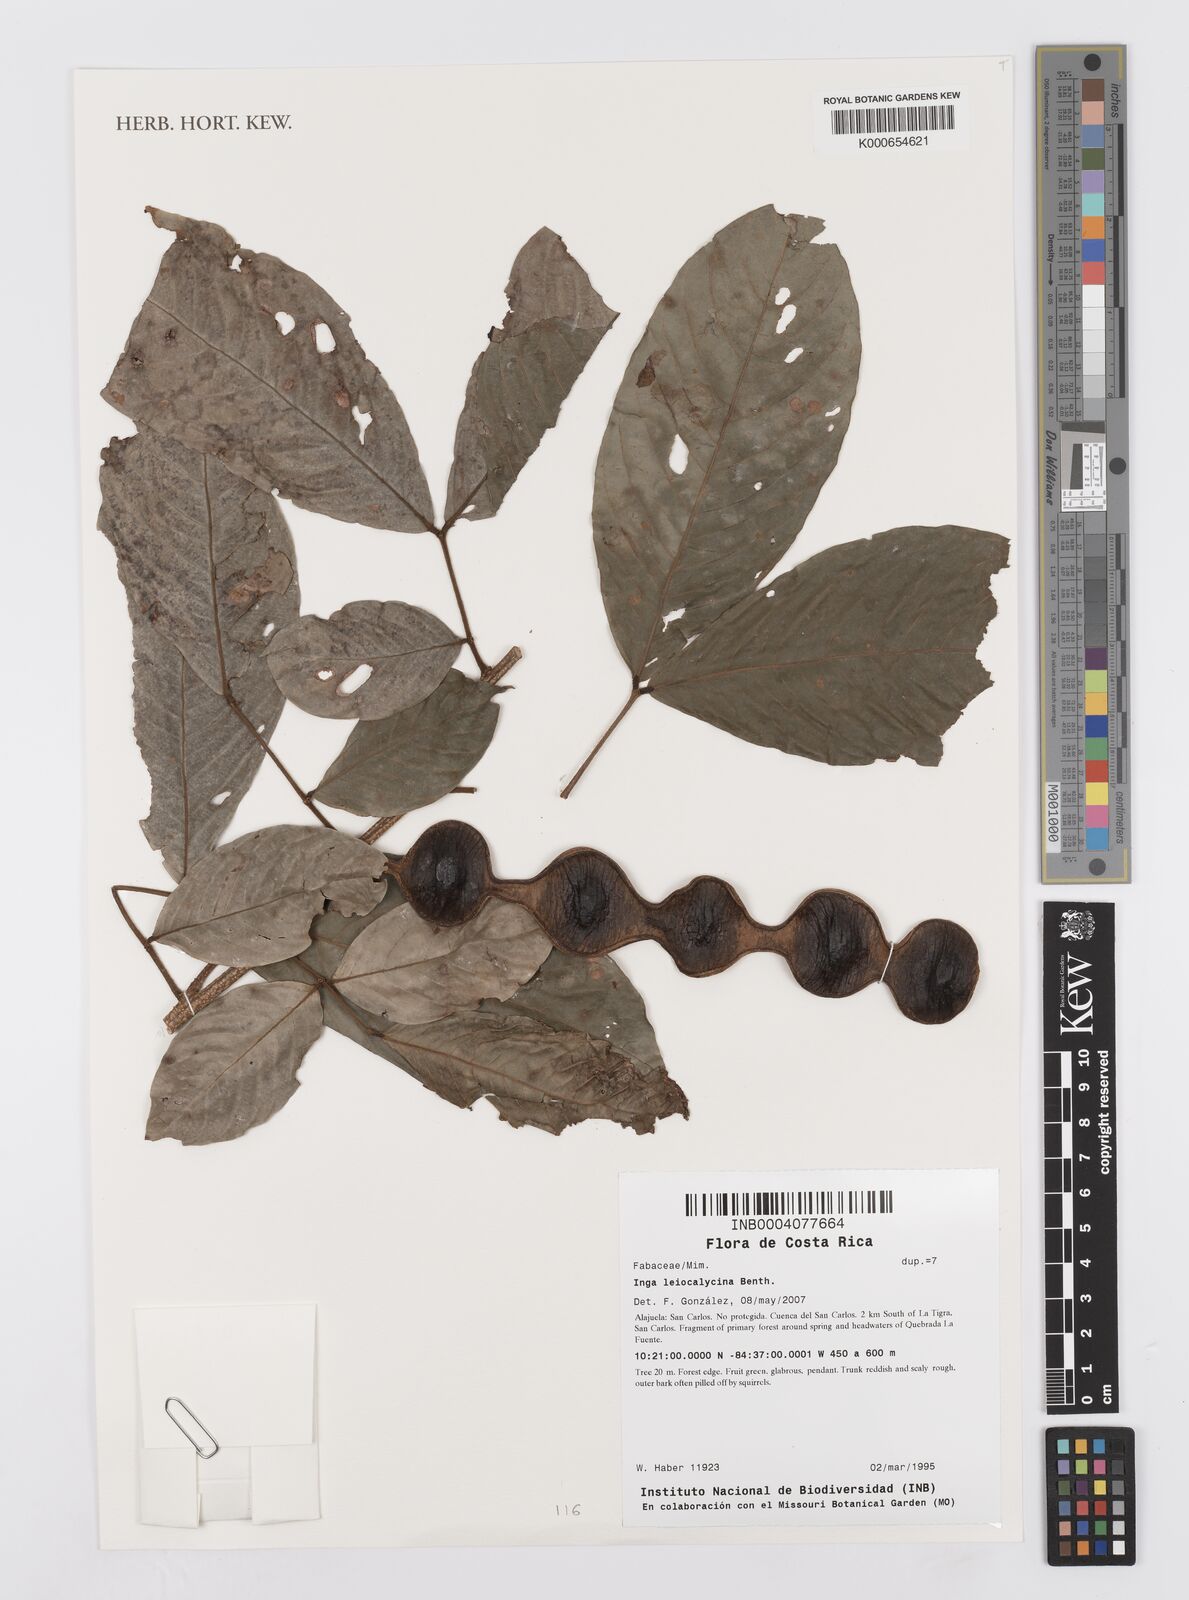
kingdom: Plantae
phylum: Tracheophyta
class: Magnoliopsida
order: Fabales
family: Fabaceae
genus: Inga
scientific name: Inga laevigata
